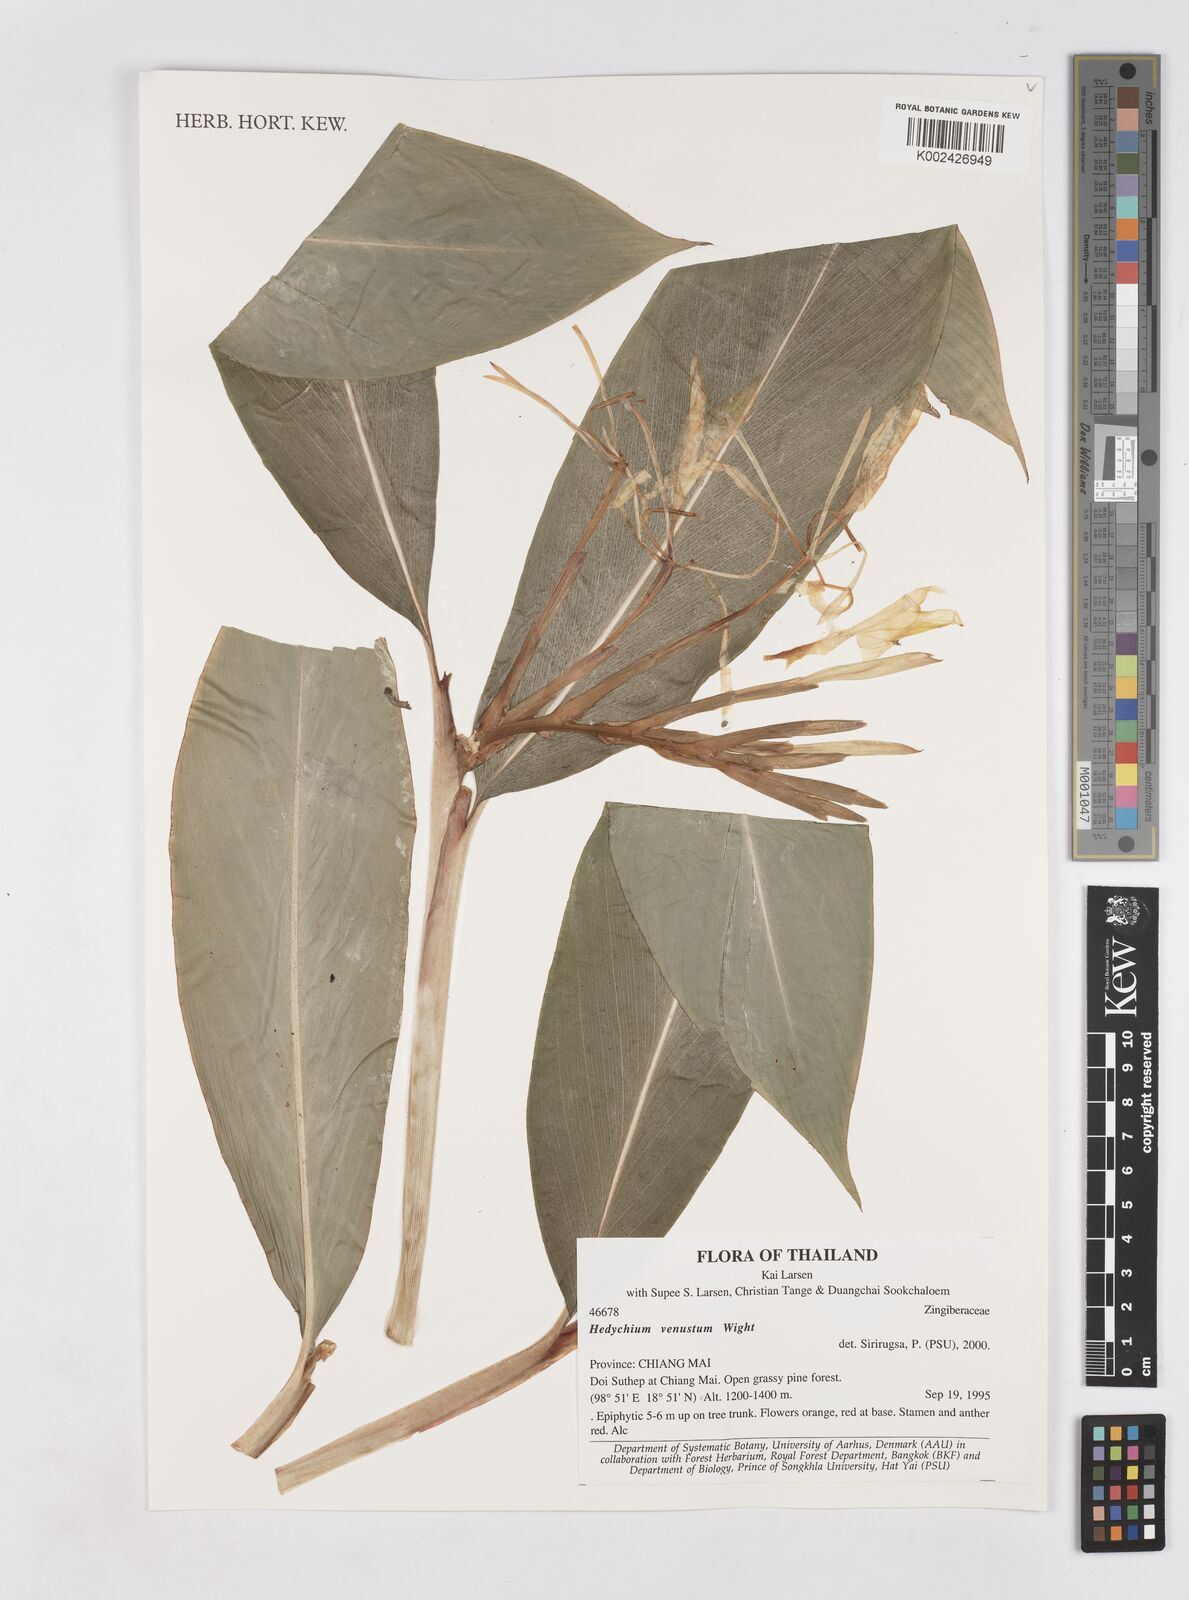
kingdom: Plantae
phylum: Tracheophyta
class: Liliopsida
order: Zingiberales
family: Zingiberaceae
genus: Hedychium
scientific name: Hedychium venustum
